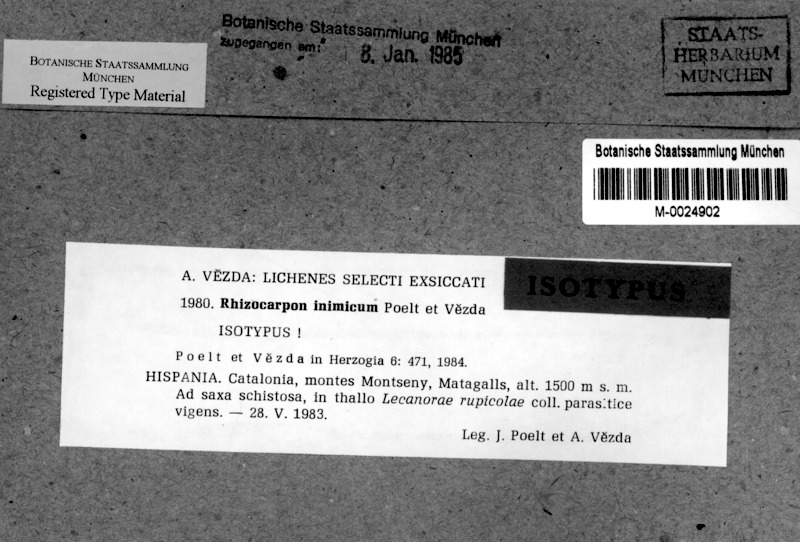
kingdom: Fungi
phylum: Ascomycota
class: Lecanoromycetes
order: Lecanorales
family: Lecanoraceae
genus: Glaucomaria
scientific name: Glaucomaria rupicola
